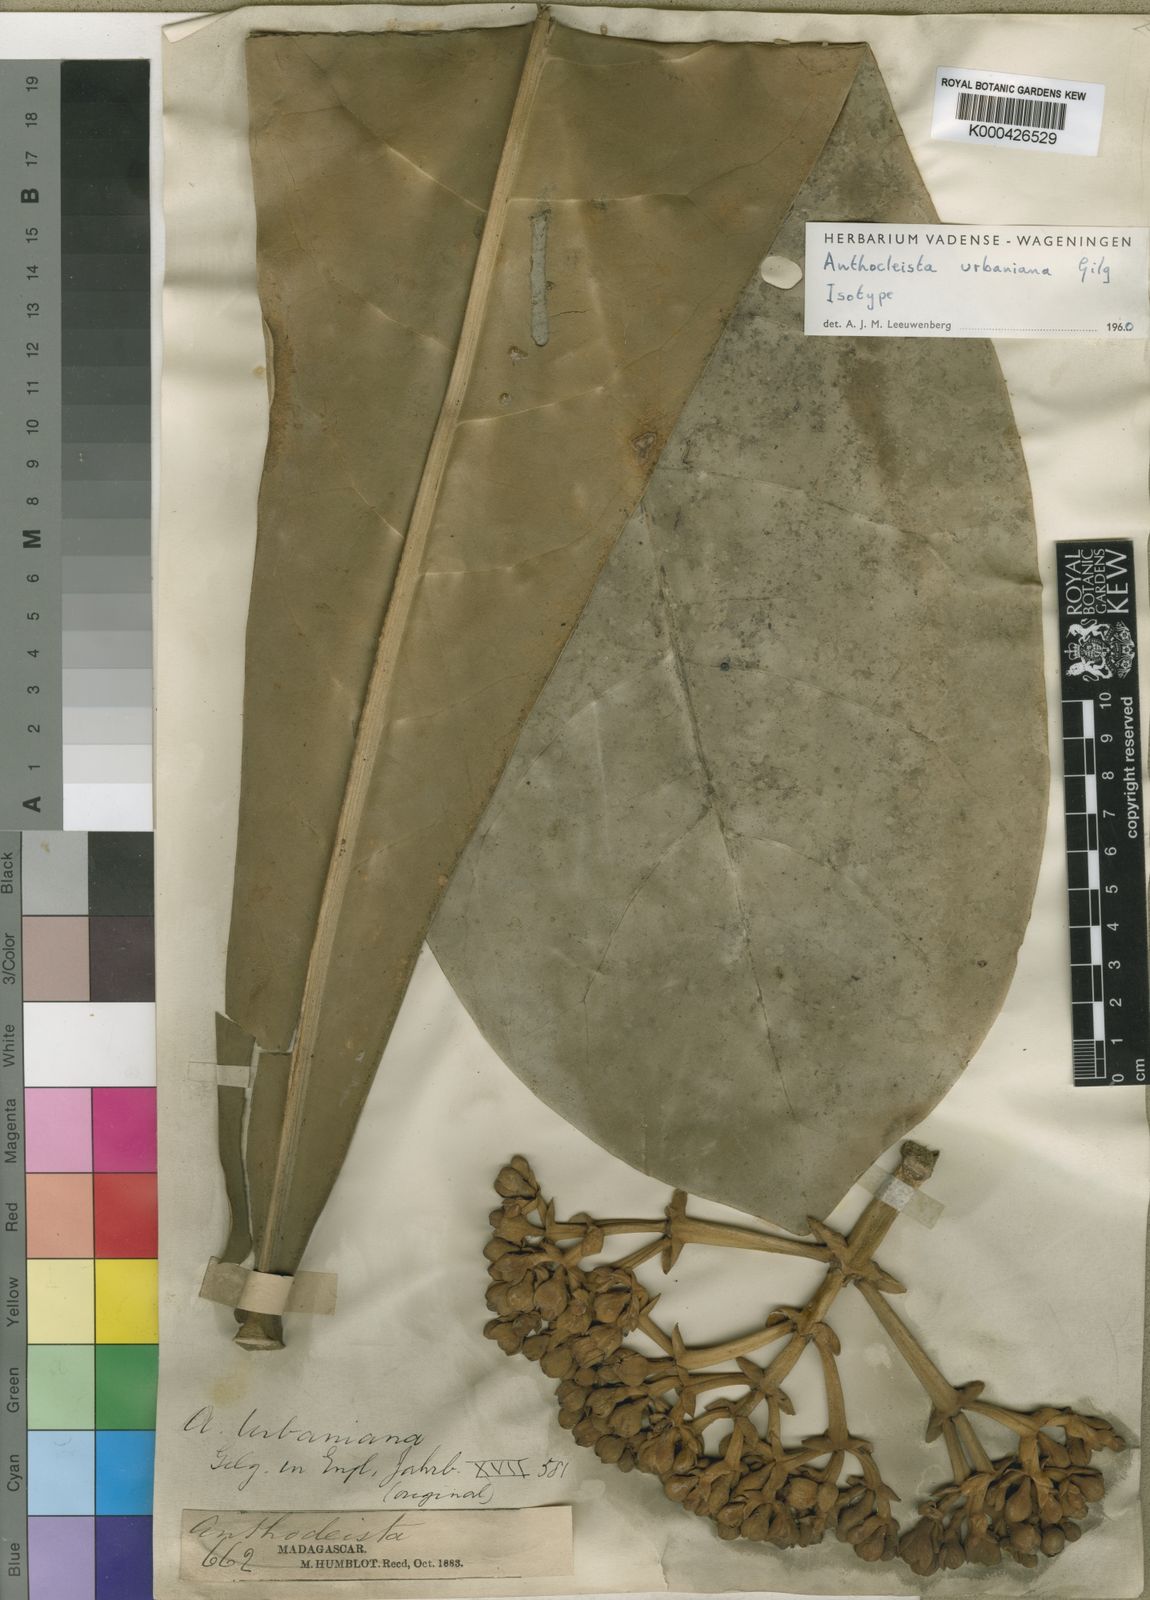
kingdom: Plantae
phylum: Tracheophyta
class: Magnoliopsida
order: Gentianales
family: Gentianaceae
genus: Anthocleista
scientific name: Anthocleista longifolia
